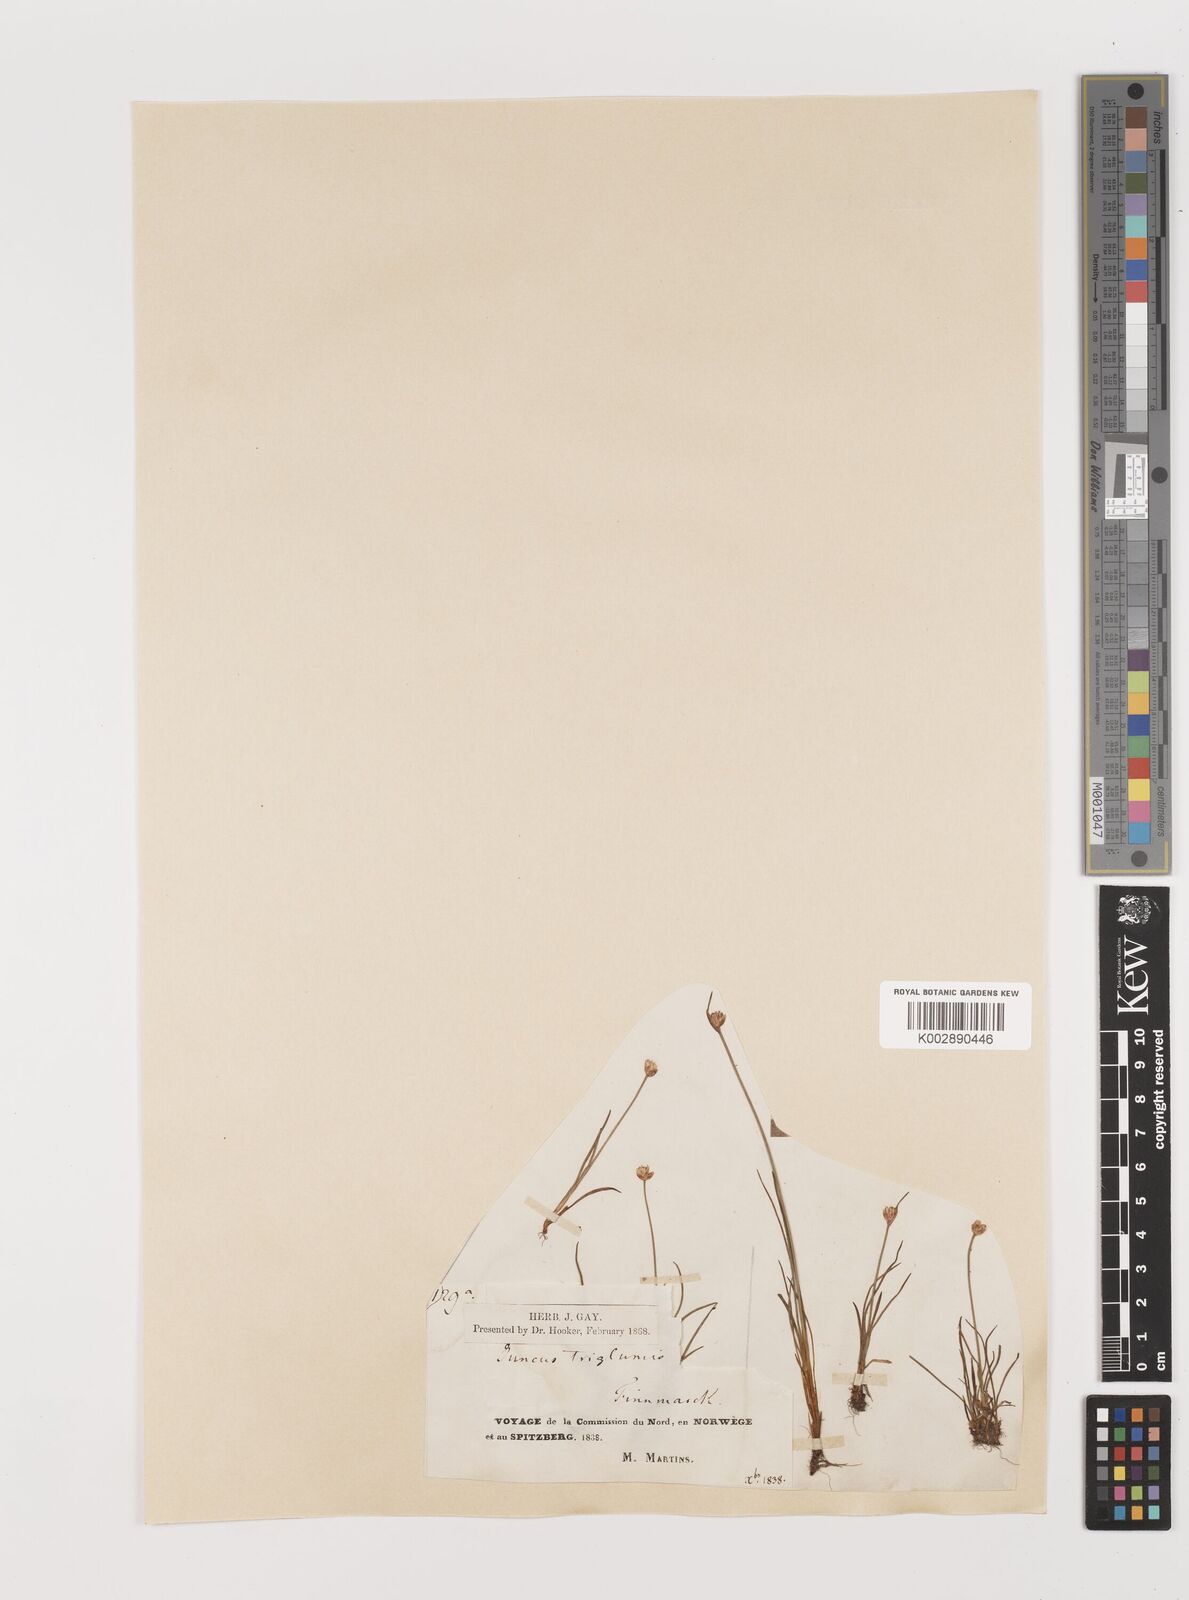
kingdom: Plantae
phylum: Tracheophyta
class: Liliopsida
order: Poales
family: Juncaceae
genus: Juncus
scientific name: Juncus triglumis
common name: Three-flowered rush
